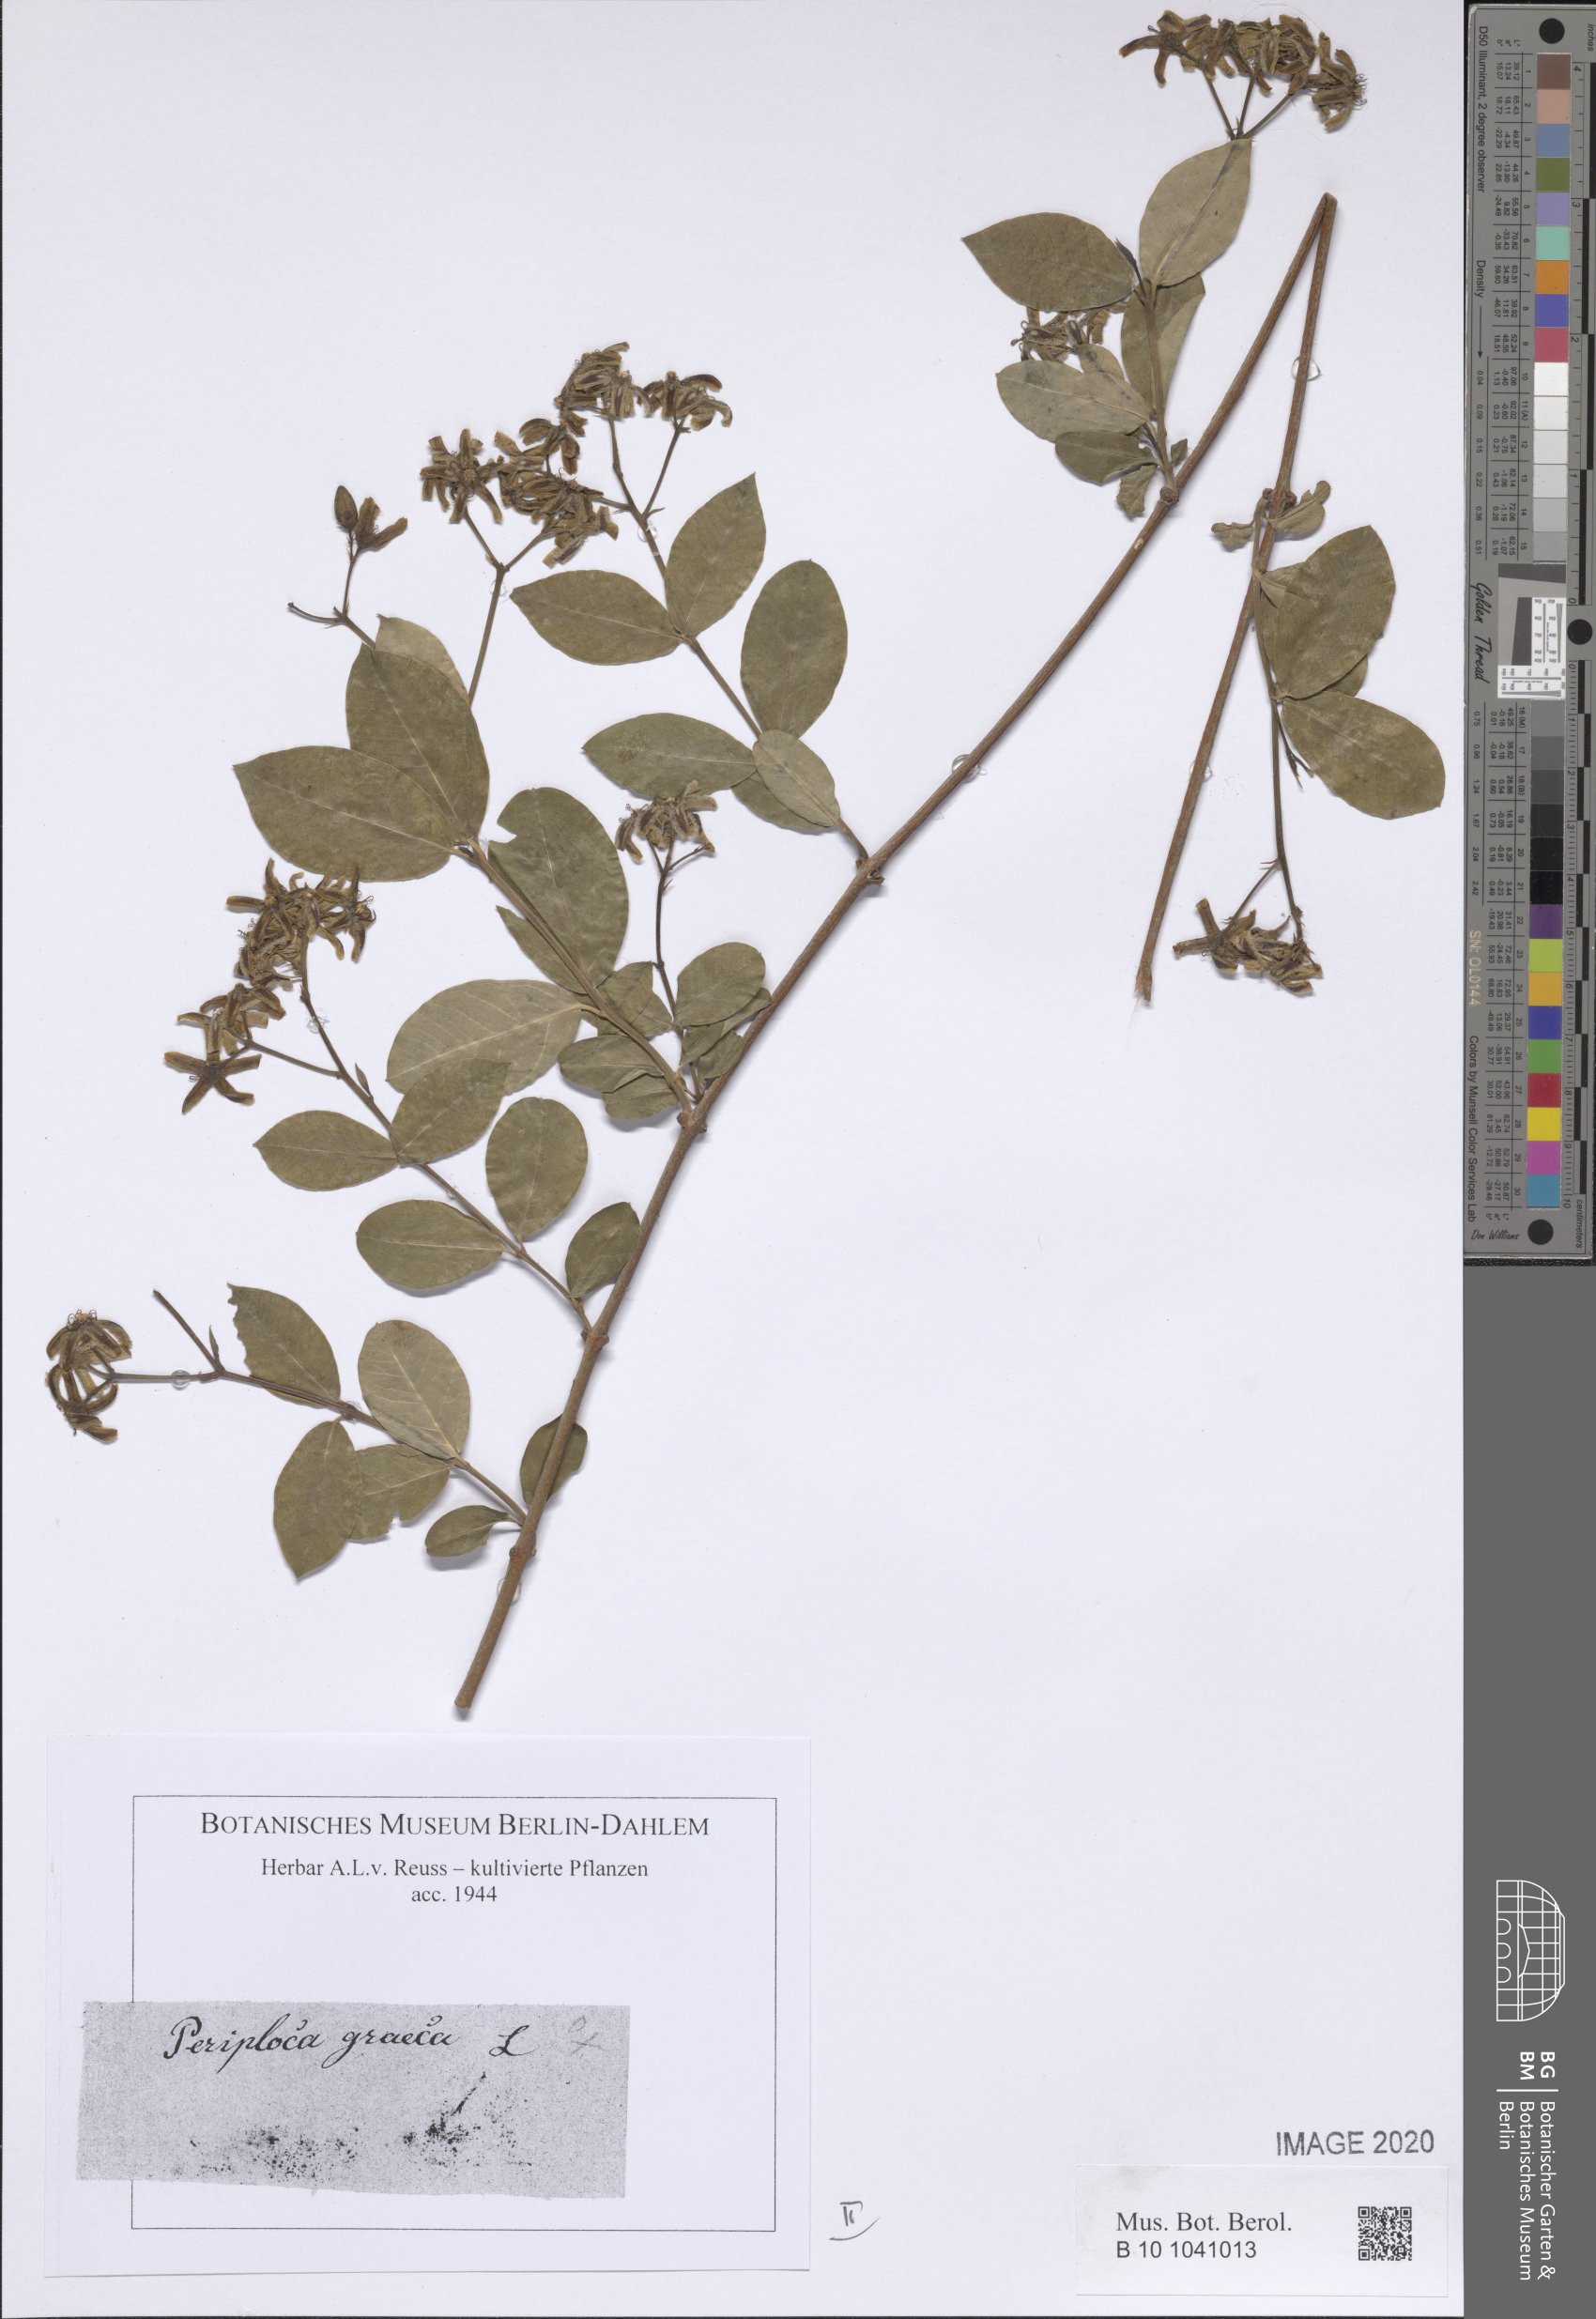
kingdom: Plantae
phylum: Tracheophyta
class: Magnoliopsida
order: Gentianales
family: Apocynaceae
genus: Periploca
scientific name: Periploca graeca
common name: Silkvine
